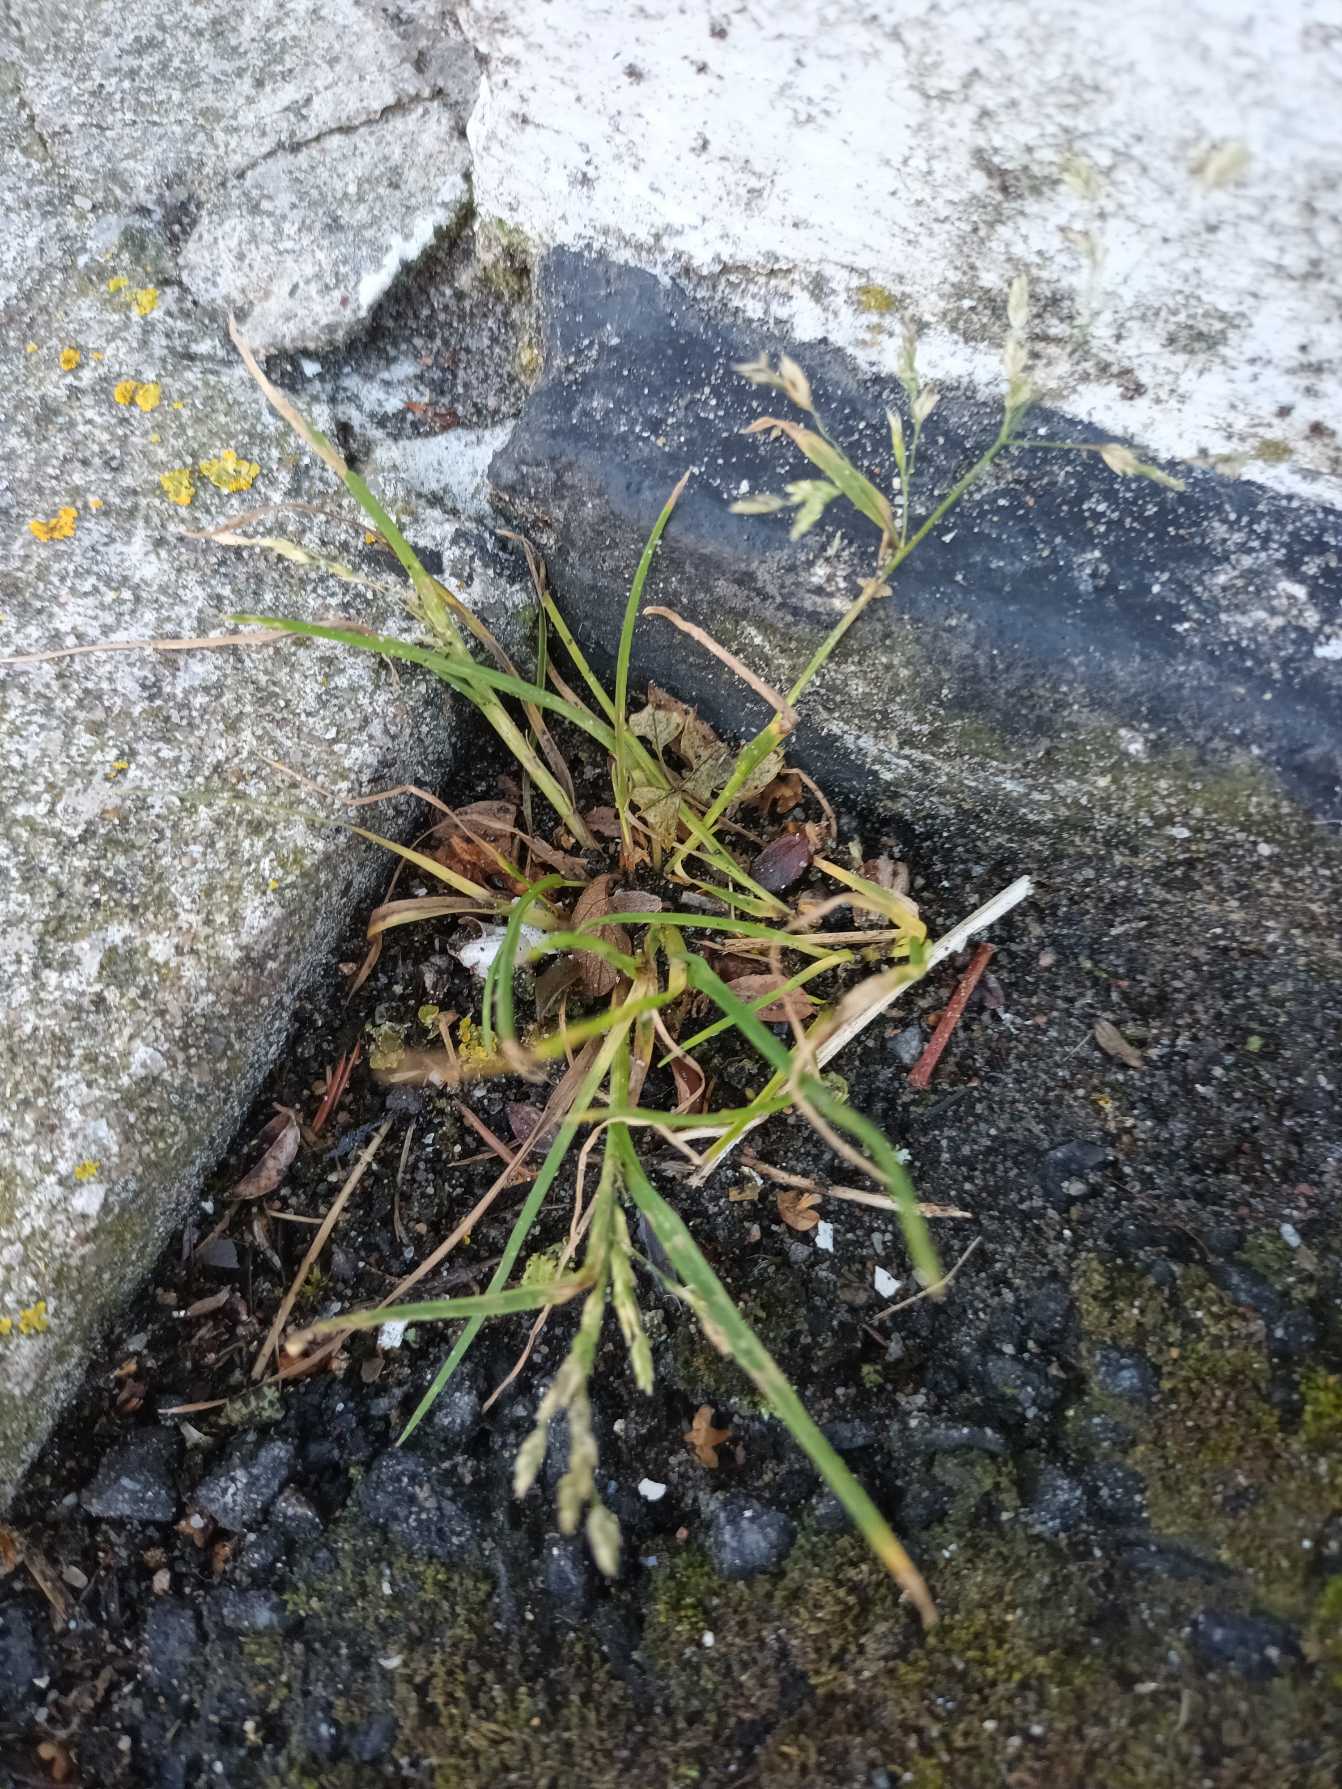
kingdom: Plantae
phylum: Tracheophyta
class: Liliopsida
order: Poales
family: Poaceae
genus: Poa
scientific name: Poa annua
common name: Enårig rapgræs
